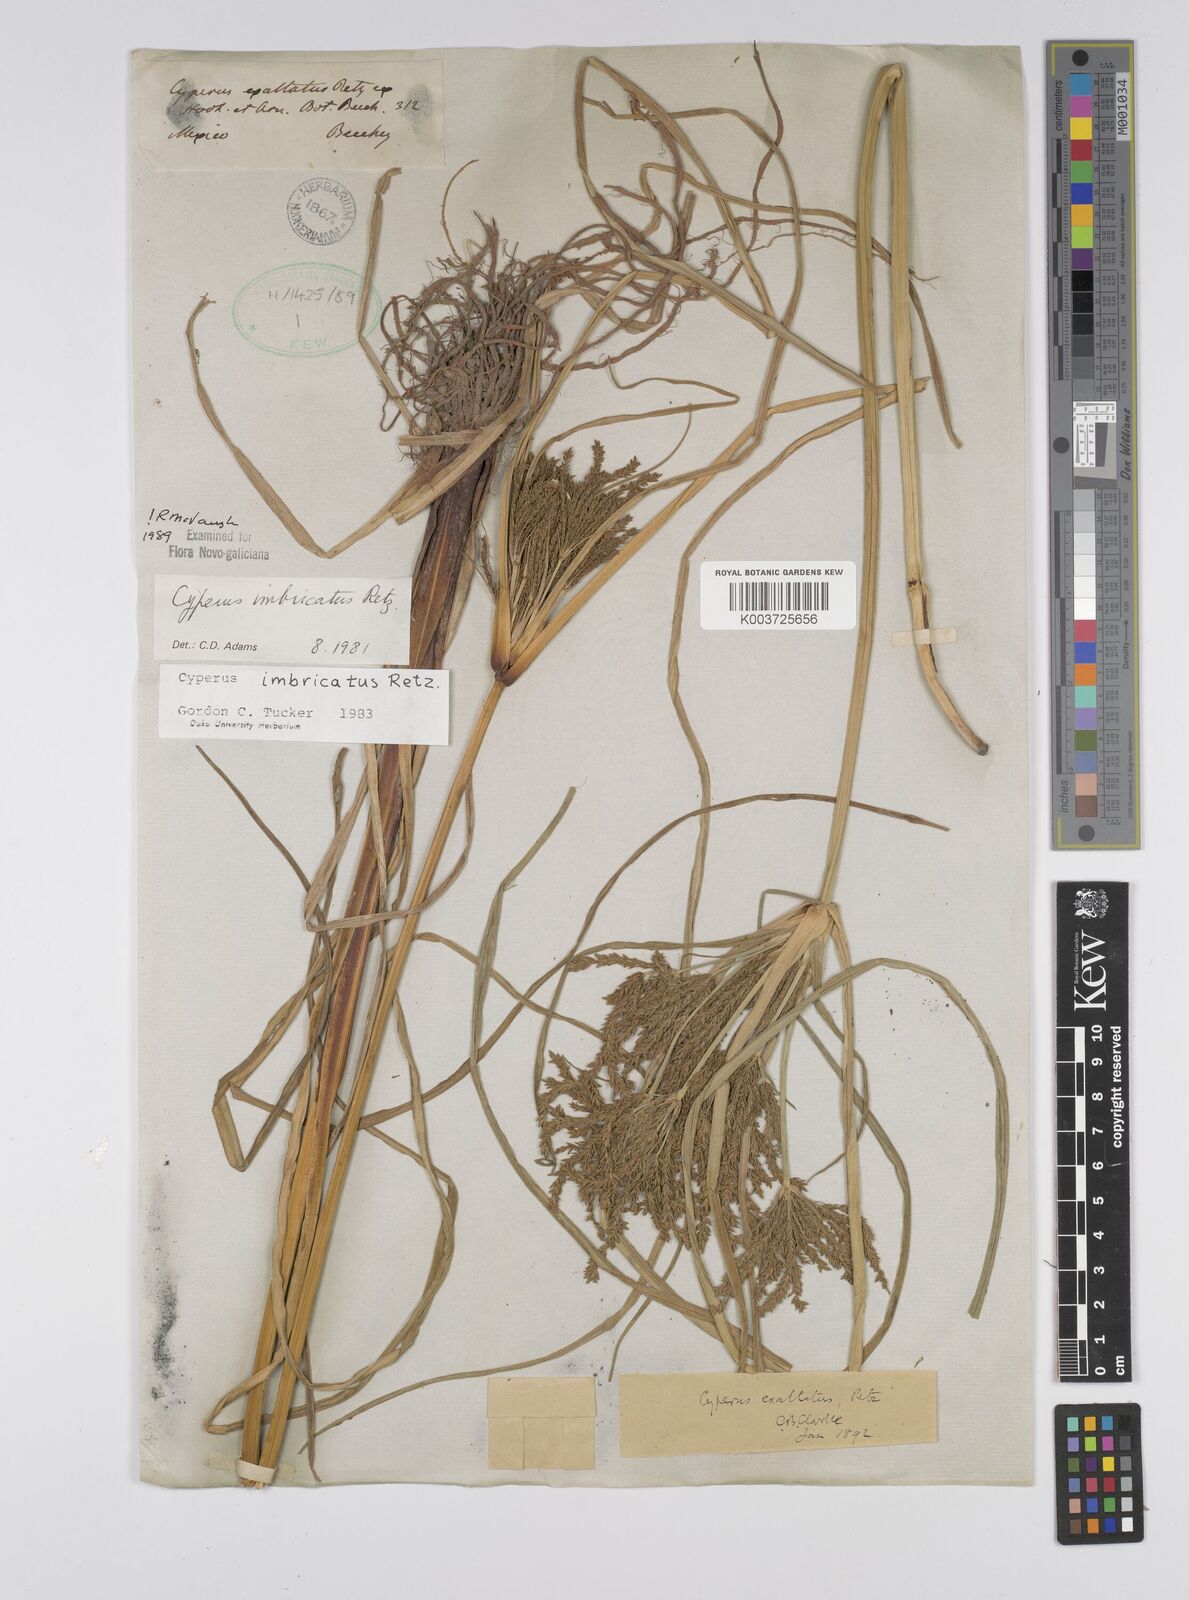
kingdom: Plantae
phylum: Tracheophyta
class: Liliopsida
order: Poales
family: Cyperaceae
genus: Cyperus
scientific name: Cyperus imbricatus
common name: Shingle flatsedge
